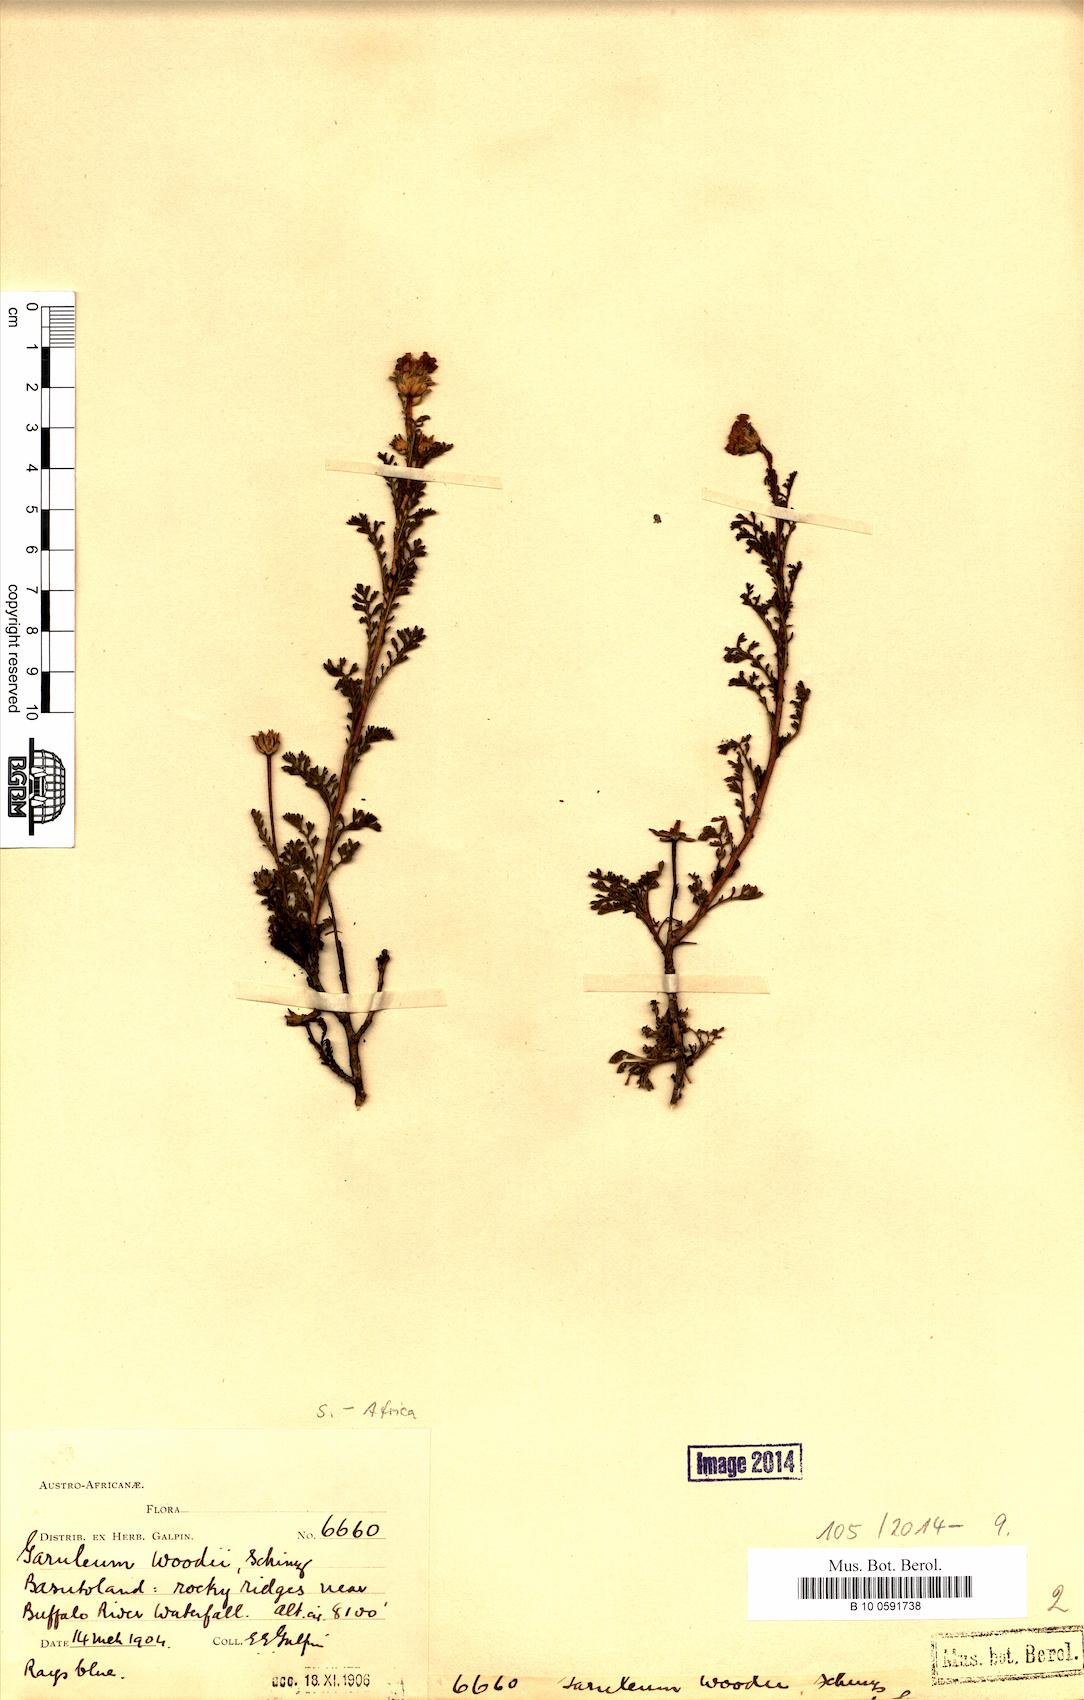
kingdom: Plantae
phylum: Tracheophyta
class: Magnoliopsida
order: Asterales
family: Asteraceae
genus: Garuleum
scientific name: Garuleum woodii
